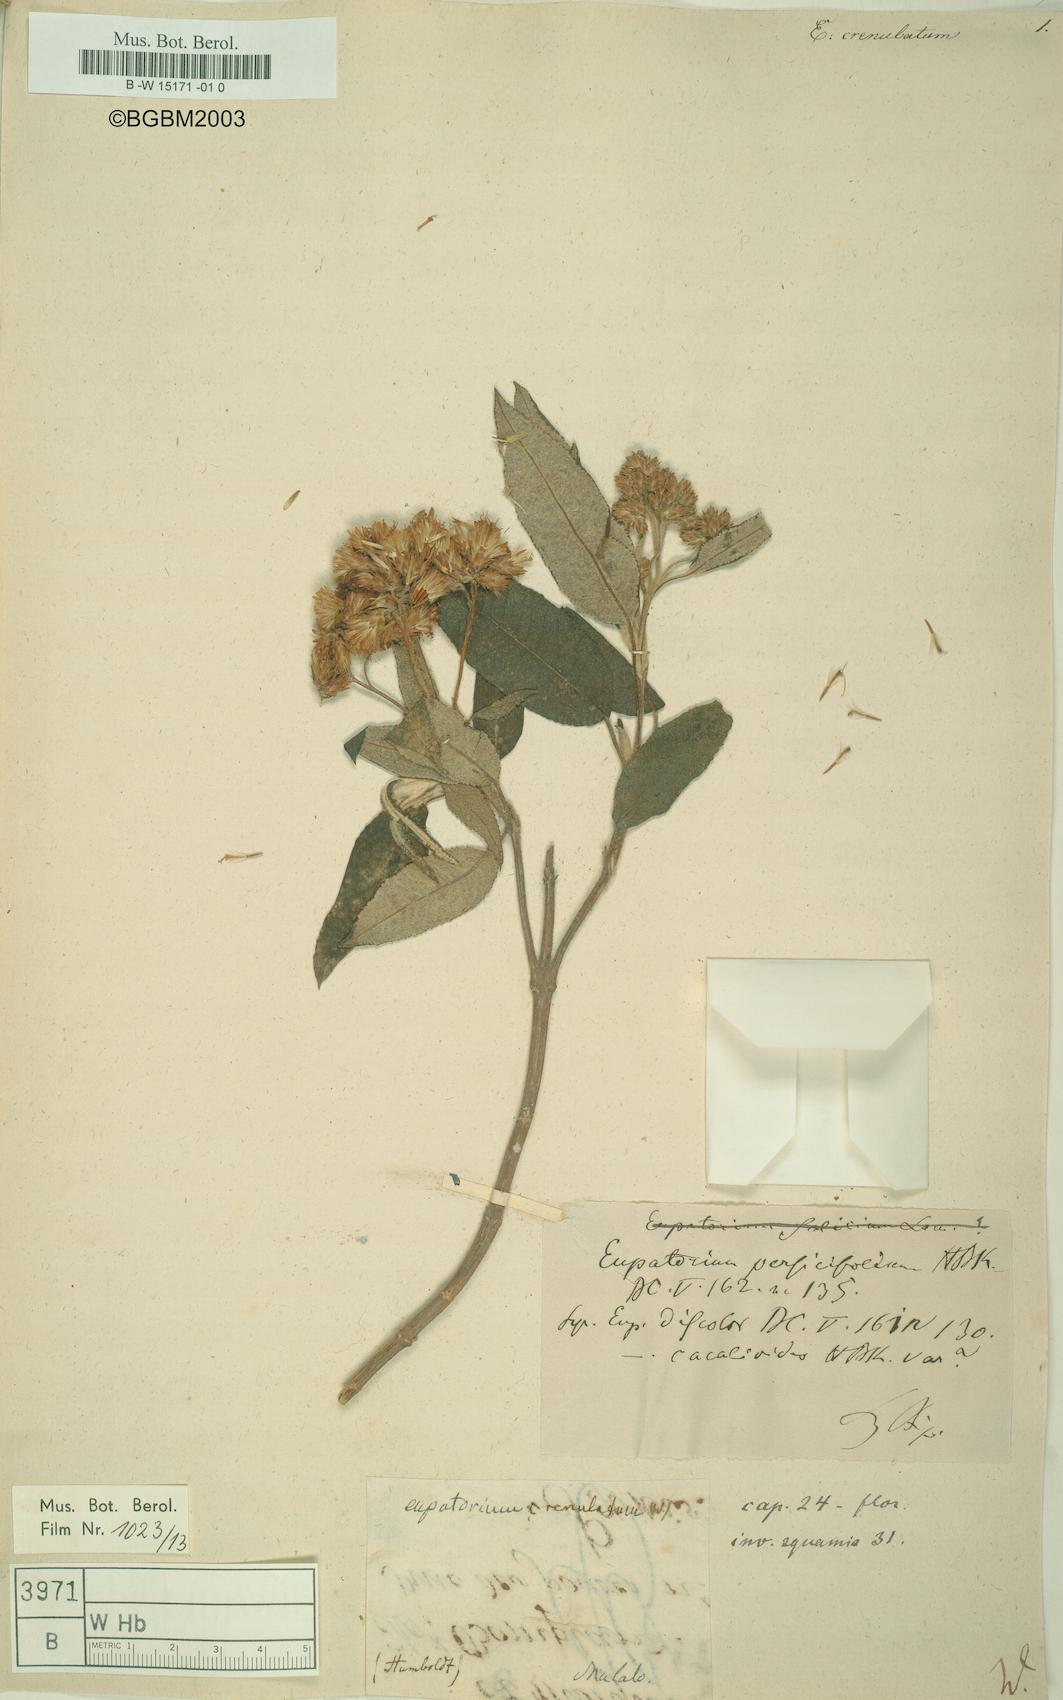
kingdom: Plantae
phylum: Tracheophyta
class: Magnoliopsida
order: Asterales
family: Asteraceae
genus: Eupatorium
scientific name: Eupatorium crenulatum
